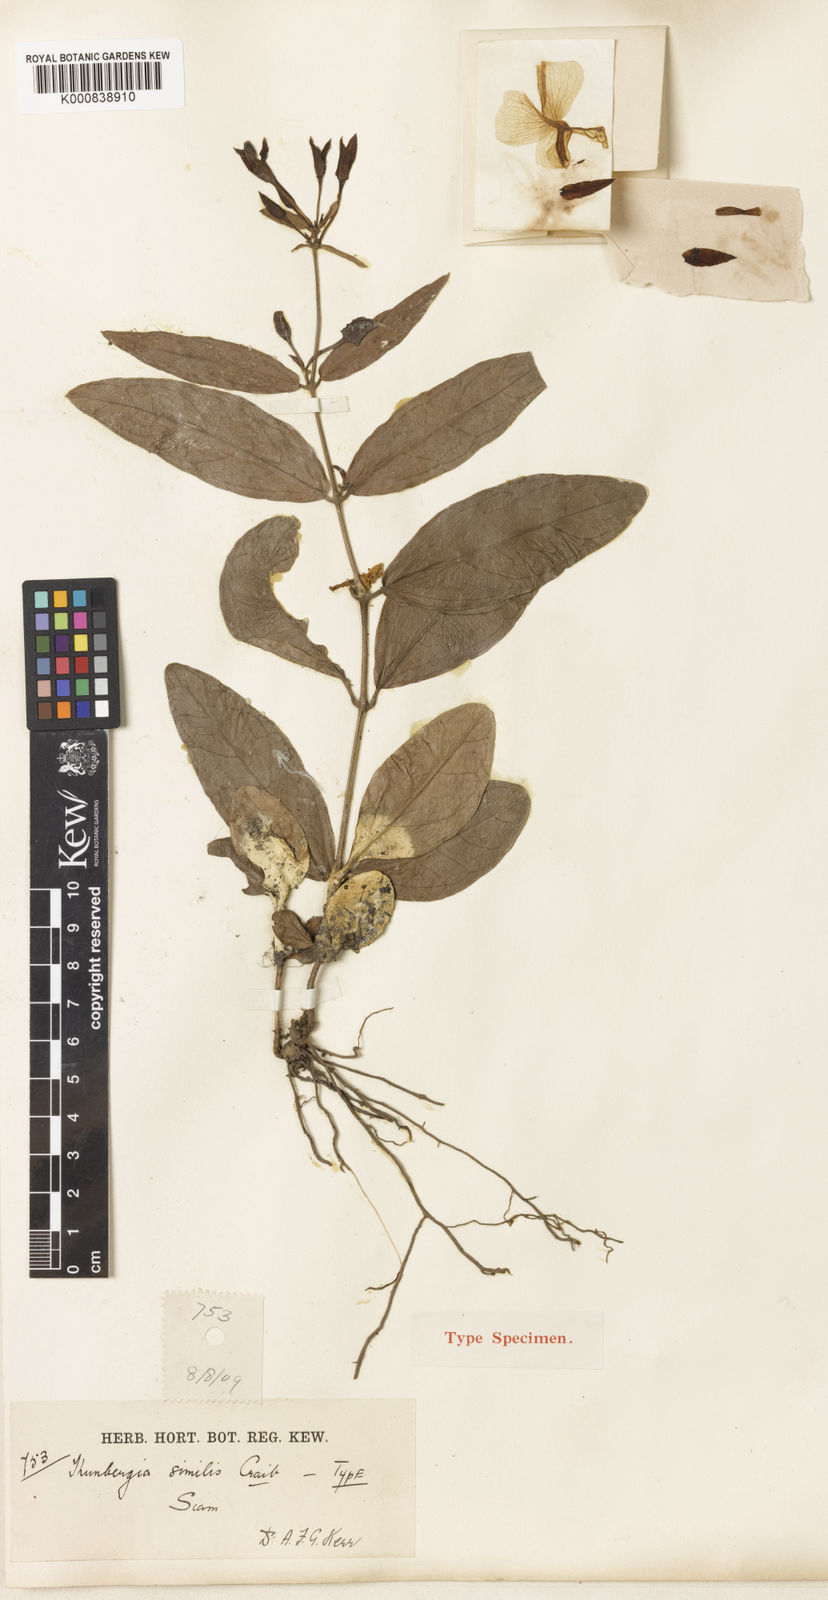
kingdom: Plantae
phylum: Tracheophyta
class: Magnoliopsida
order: Lamiales
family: Acanthaceae
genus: Thunbergia
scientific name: Thunbergia similis
